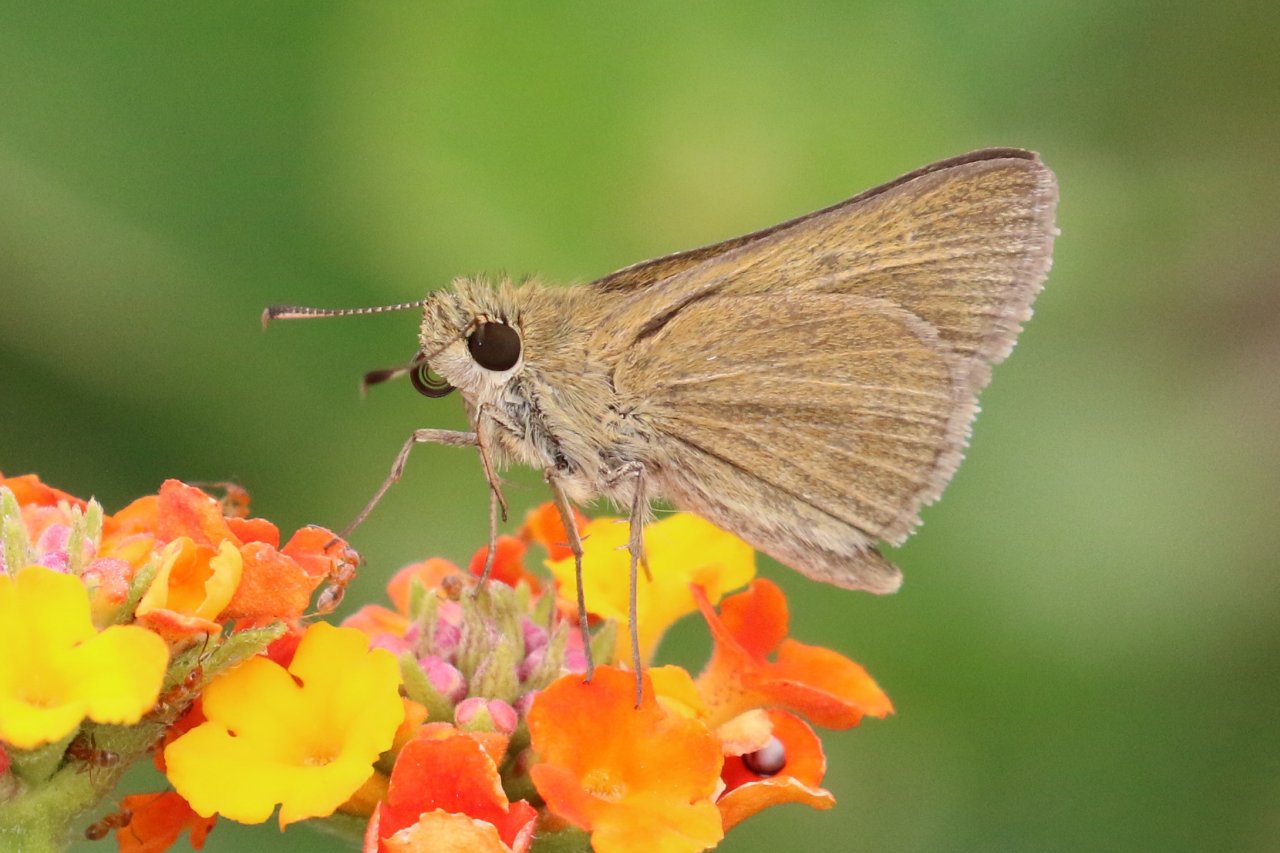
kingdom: Animalia
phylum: Arthropoda
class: Insecta
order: Lepidoptera
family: Hesperiidae
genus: Nastra
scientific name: Nastra julia
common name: Julia's Skipper
